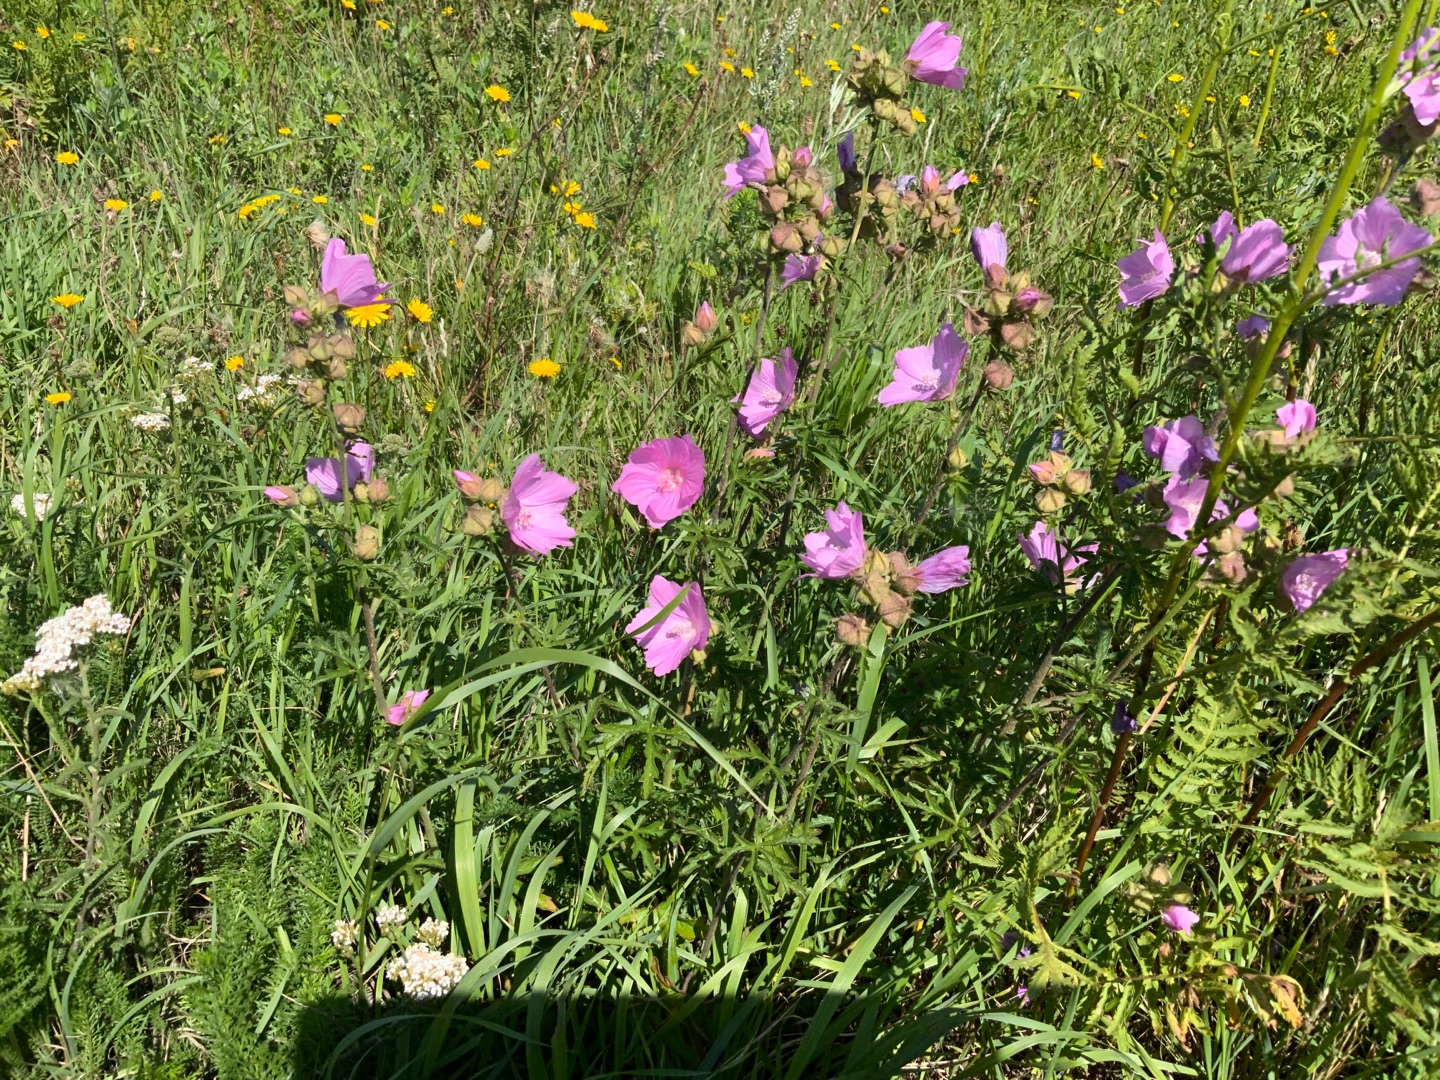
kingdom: Plantae
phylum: Tracheophyta
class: Magnoliopsida
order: Malvales
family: Malvaceae
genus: Malva
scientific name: Malva alcea
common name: Rosen-katost
